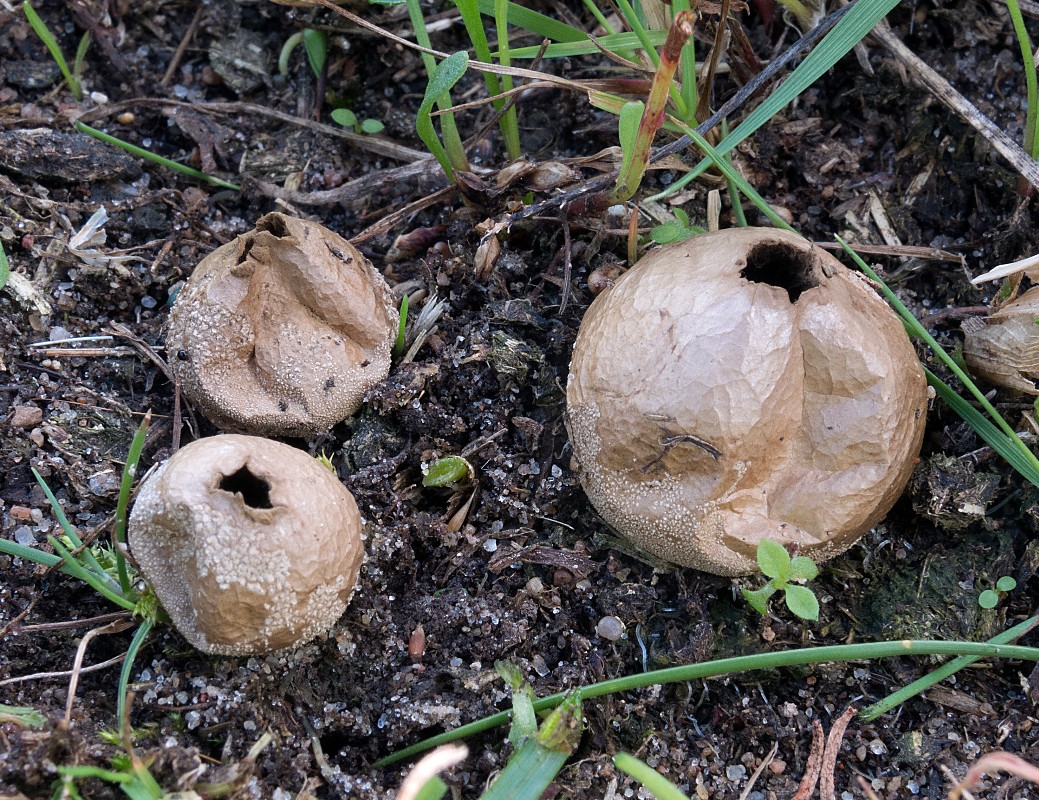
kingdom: Fungi
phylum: Basidiomycota
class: Agaricomycetes
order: Agaricales
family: Lycoperdaceae
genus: Bovista
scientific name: Bovista furfuracea
